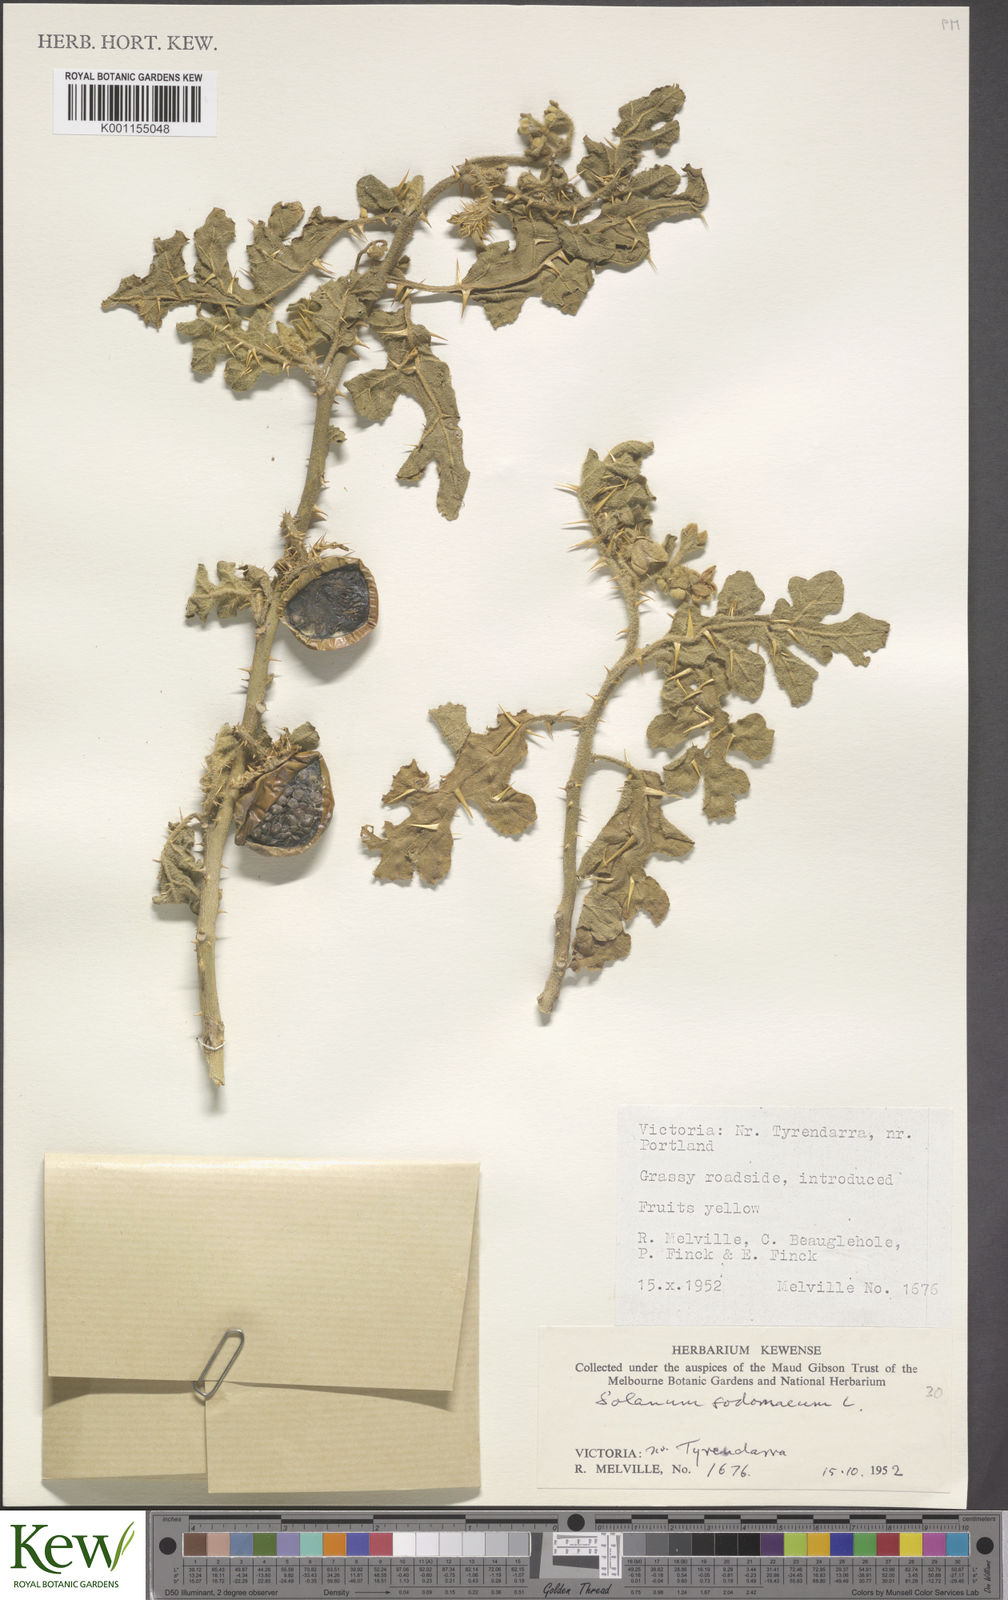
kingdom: Plantae
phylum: Tracheophyta
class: Magnoliopsida
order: Solanales
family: Solanaceae
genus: Solanum
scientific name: Solanum anguivi
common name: Forest bitterberry
